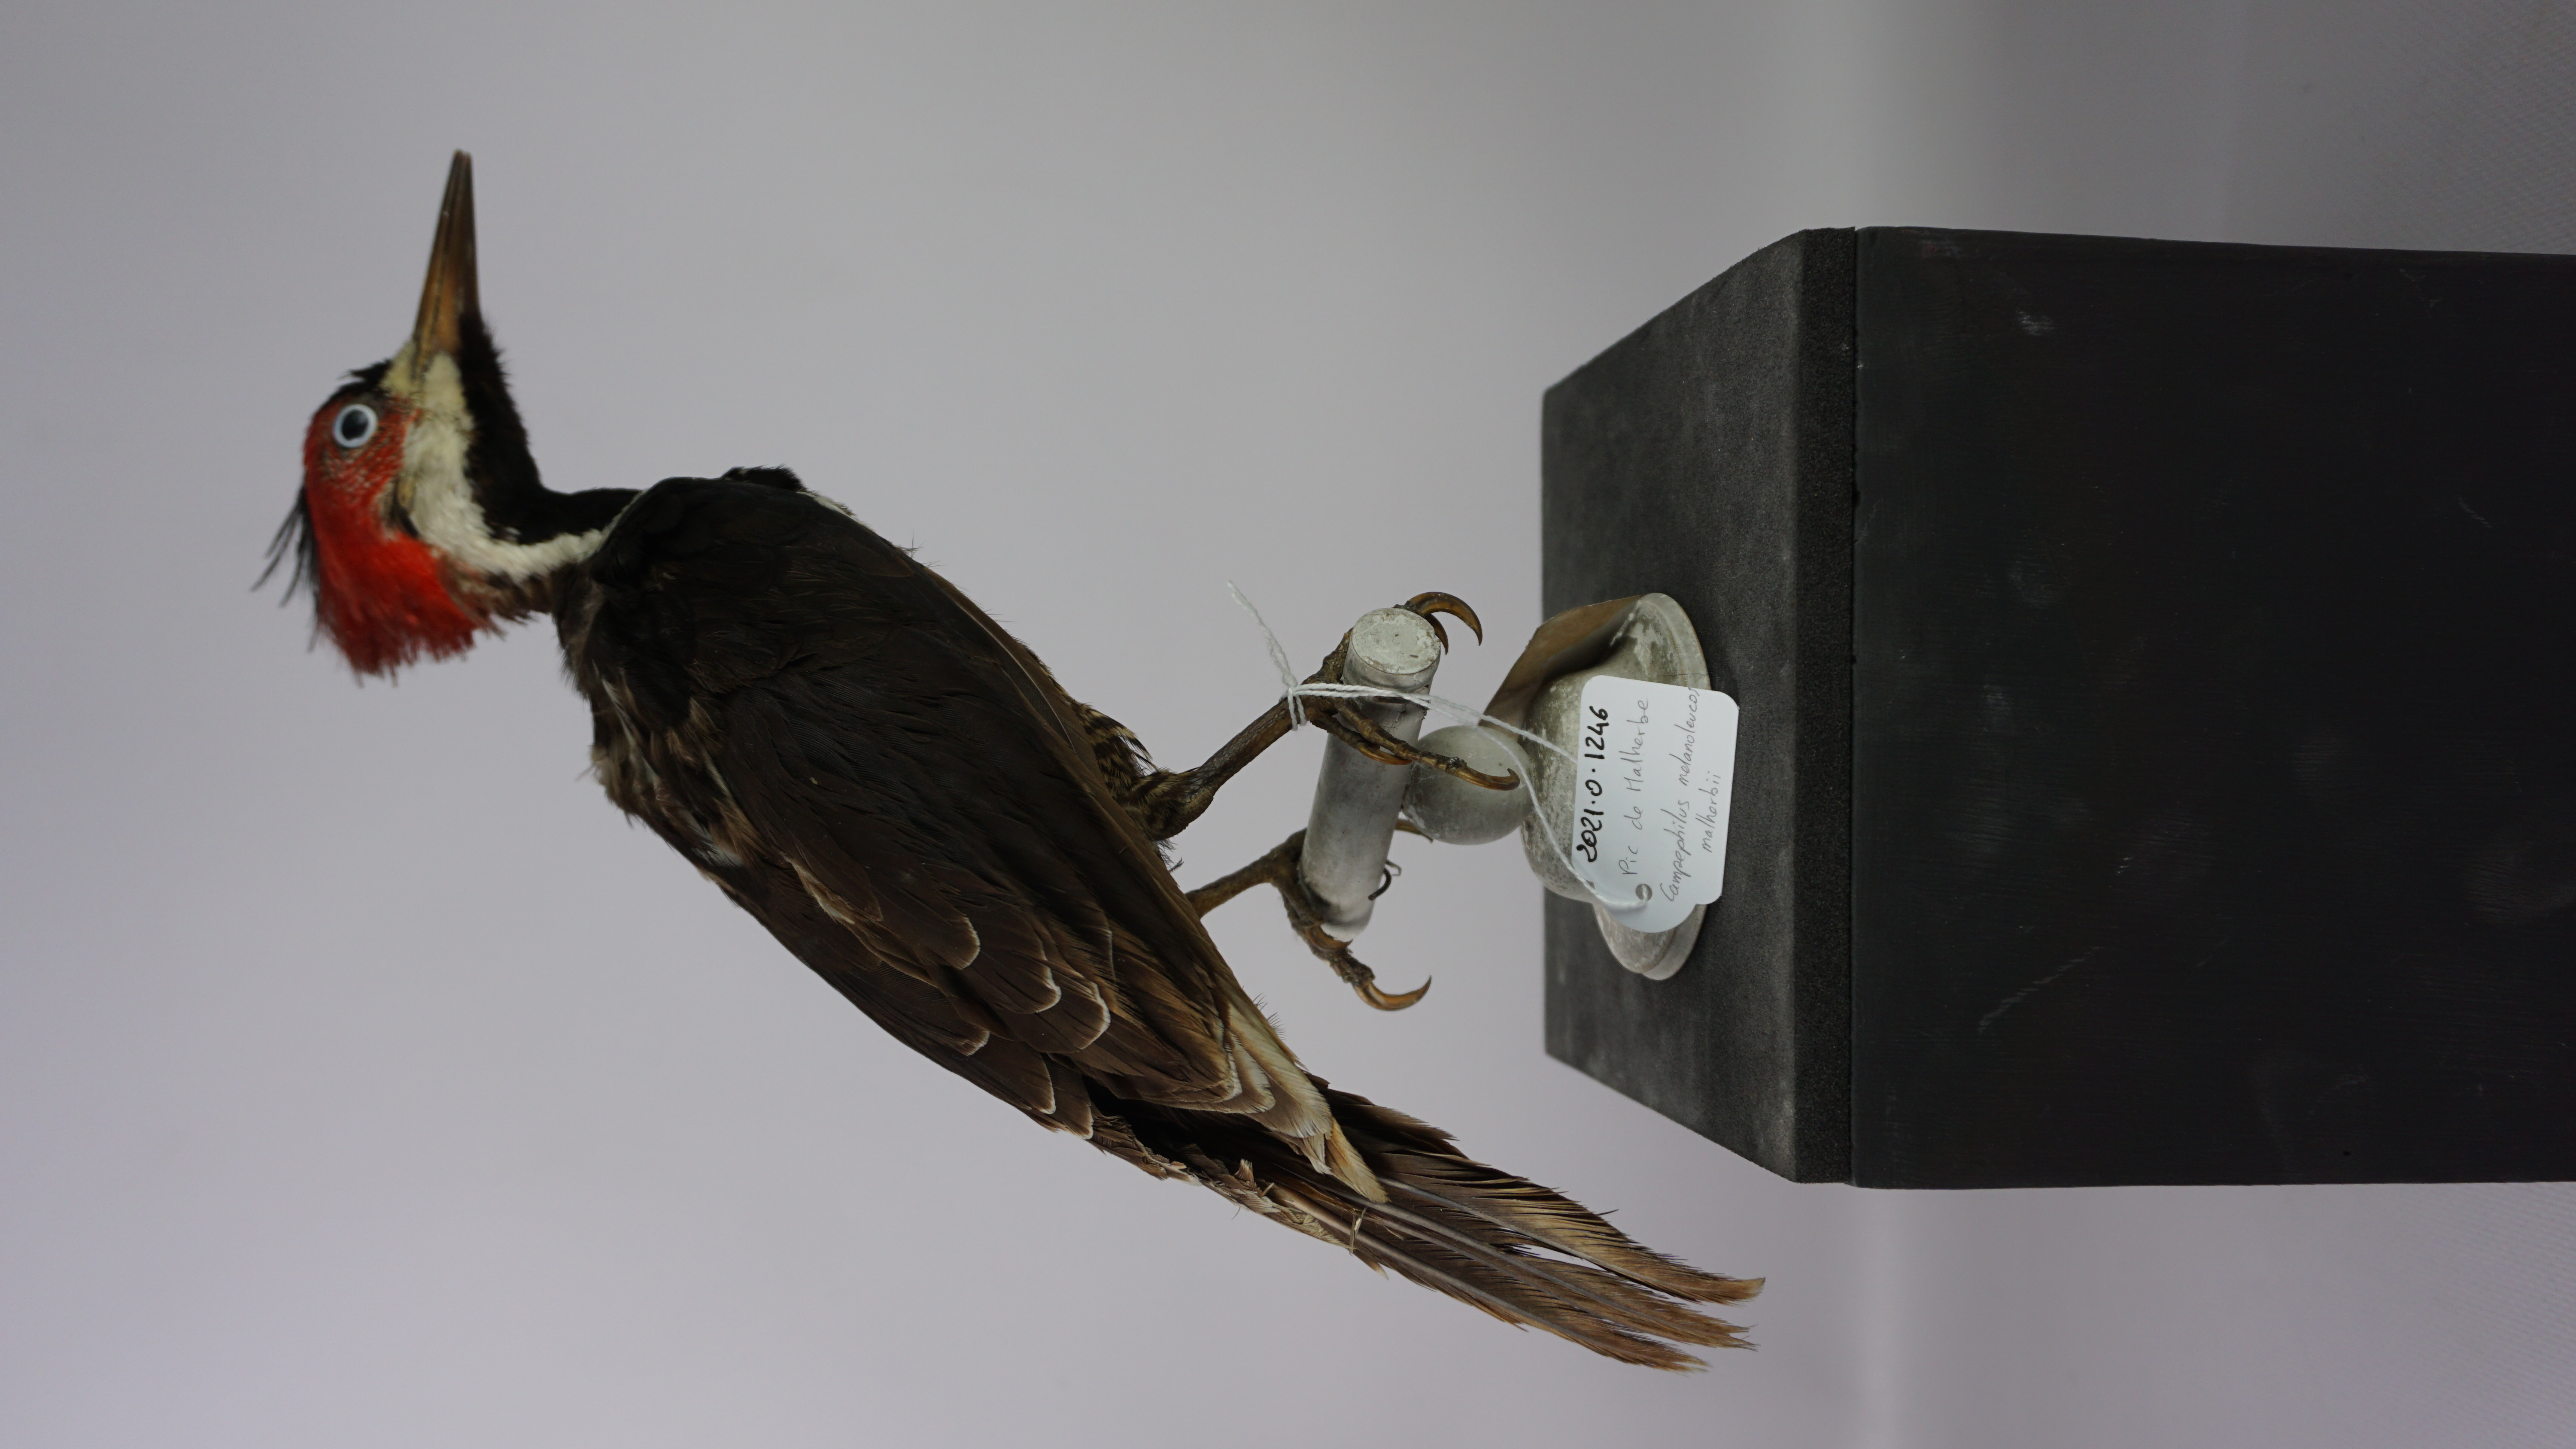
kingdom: Animalia
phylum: Chordata
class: Aves
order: Piciformes
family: Picidae
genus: Campephilus
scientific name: Campephilus melanoleucos
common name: Crimson-crested woodpecker
